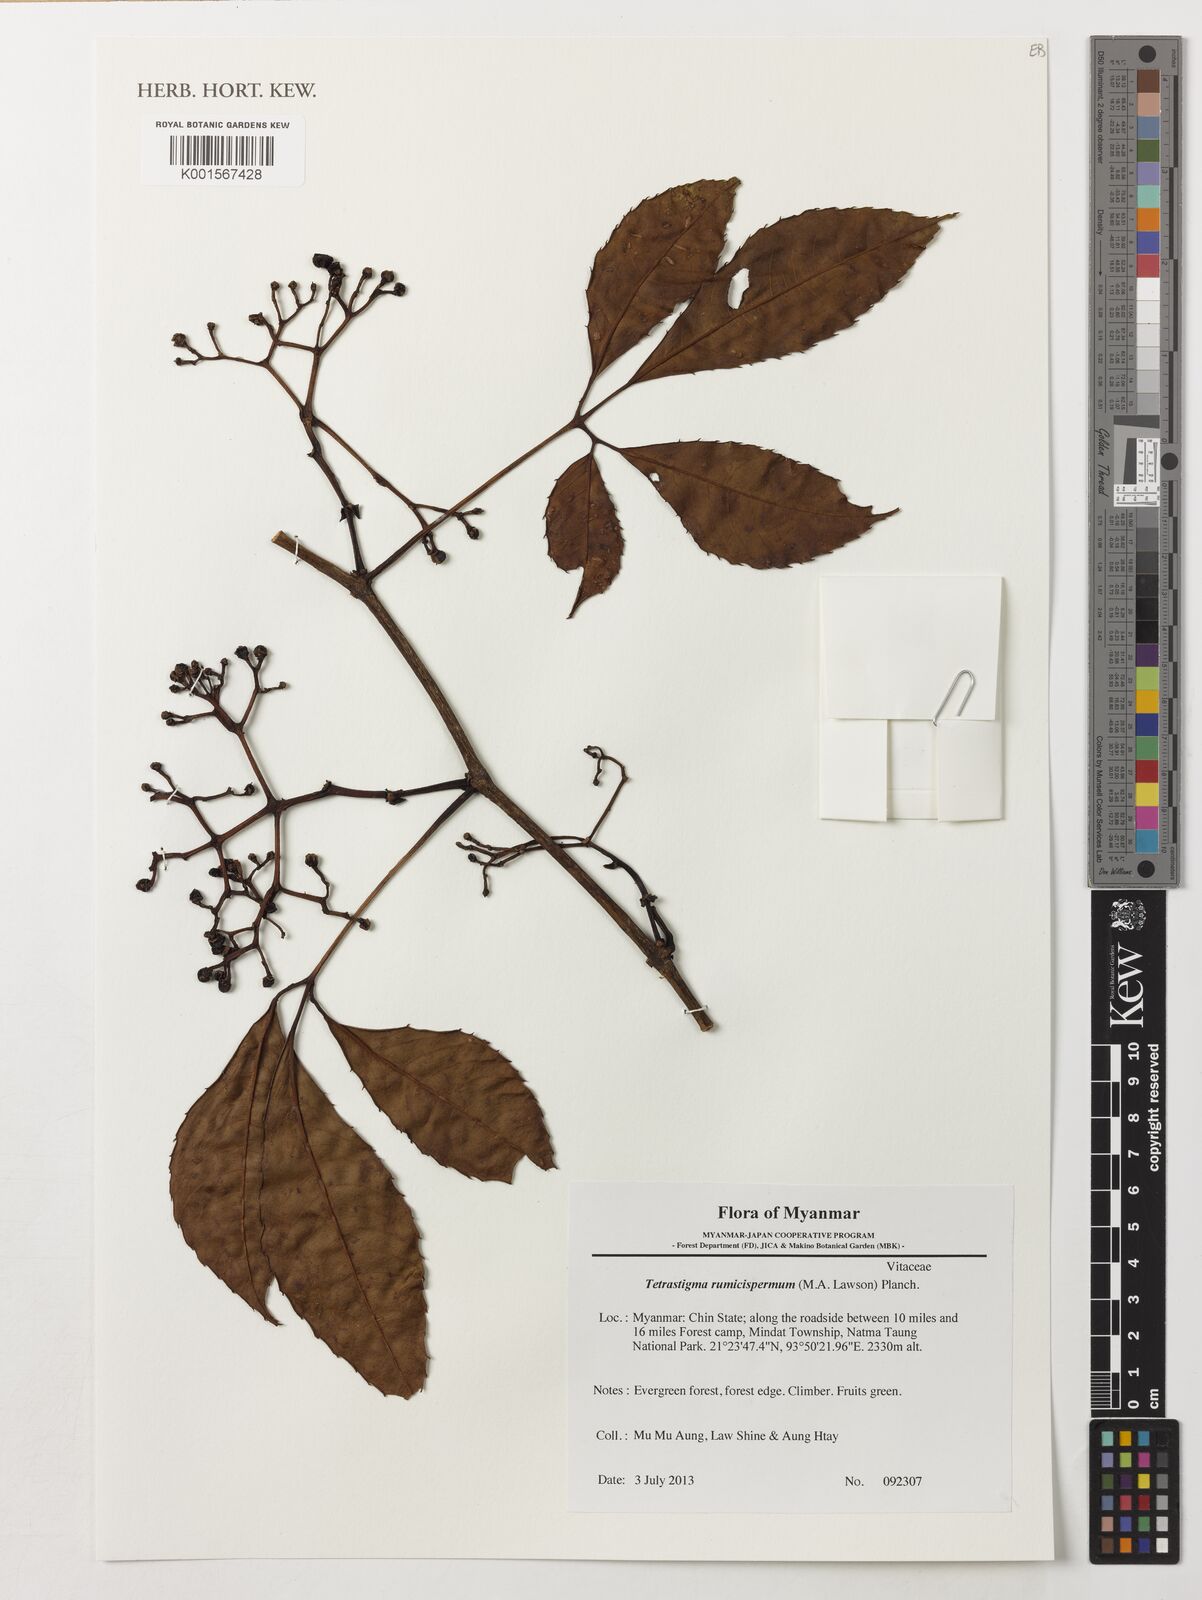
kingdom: Plantae
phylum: Tracheophyta
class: Magnoliopsida
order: Vitales
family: Vitaceae
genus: Tetrastigma
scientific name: Tetrastigma rumicispermum
